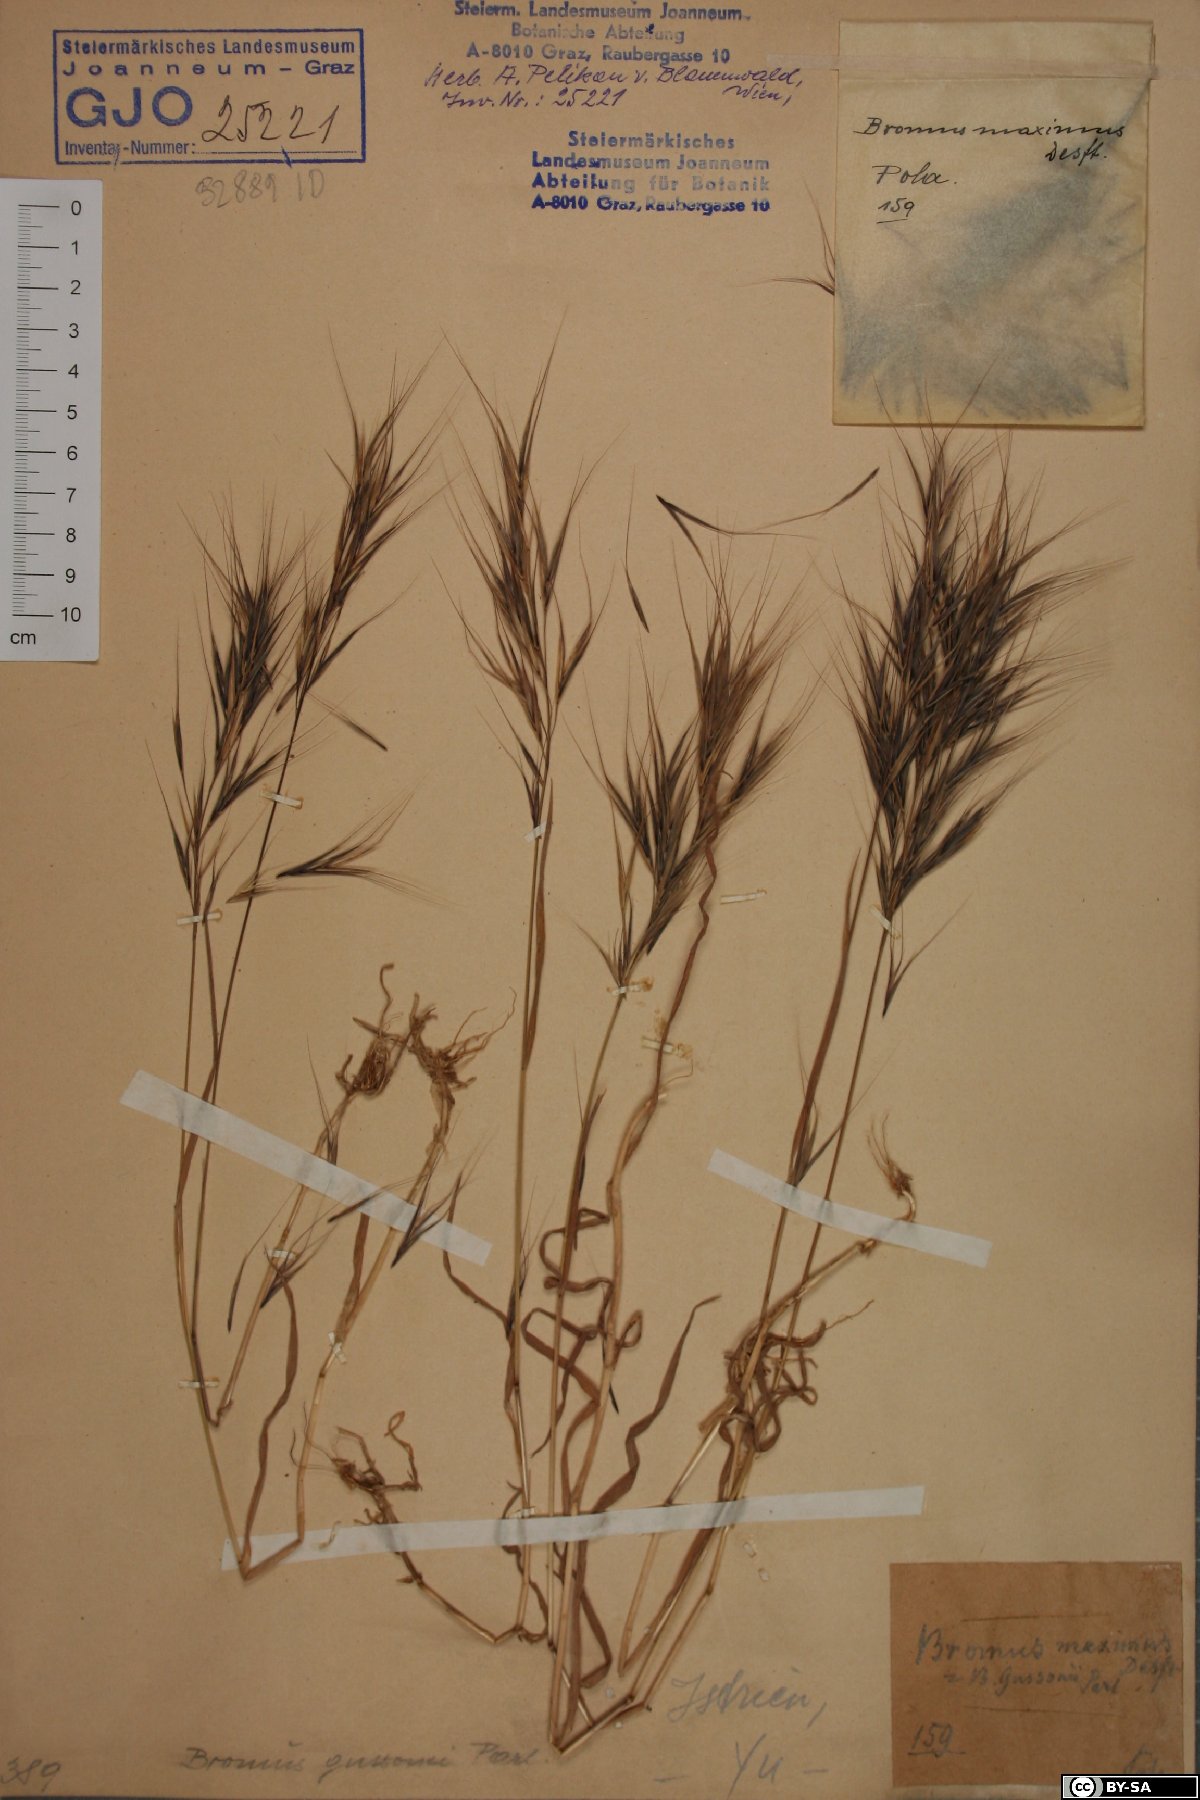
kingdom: Plantae
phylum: Tracheophyta
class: Liliopsida
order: Poales
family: Poaceae
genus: Bromus
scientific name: Bromus diandrus
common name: Ripgut brome
